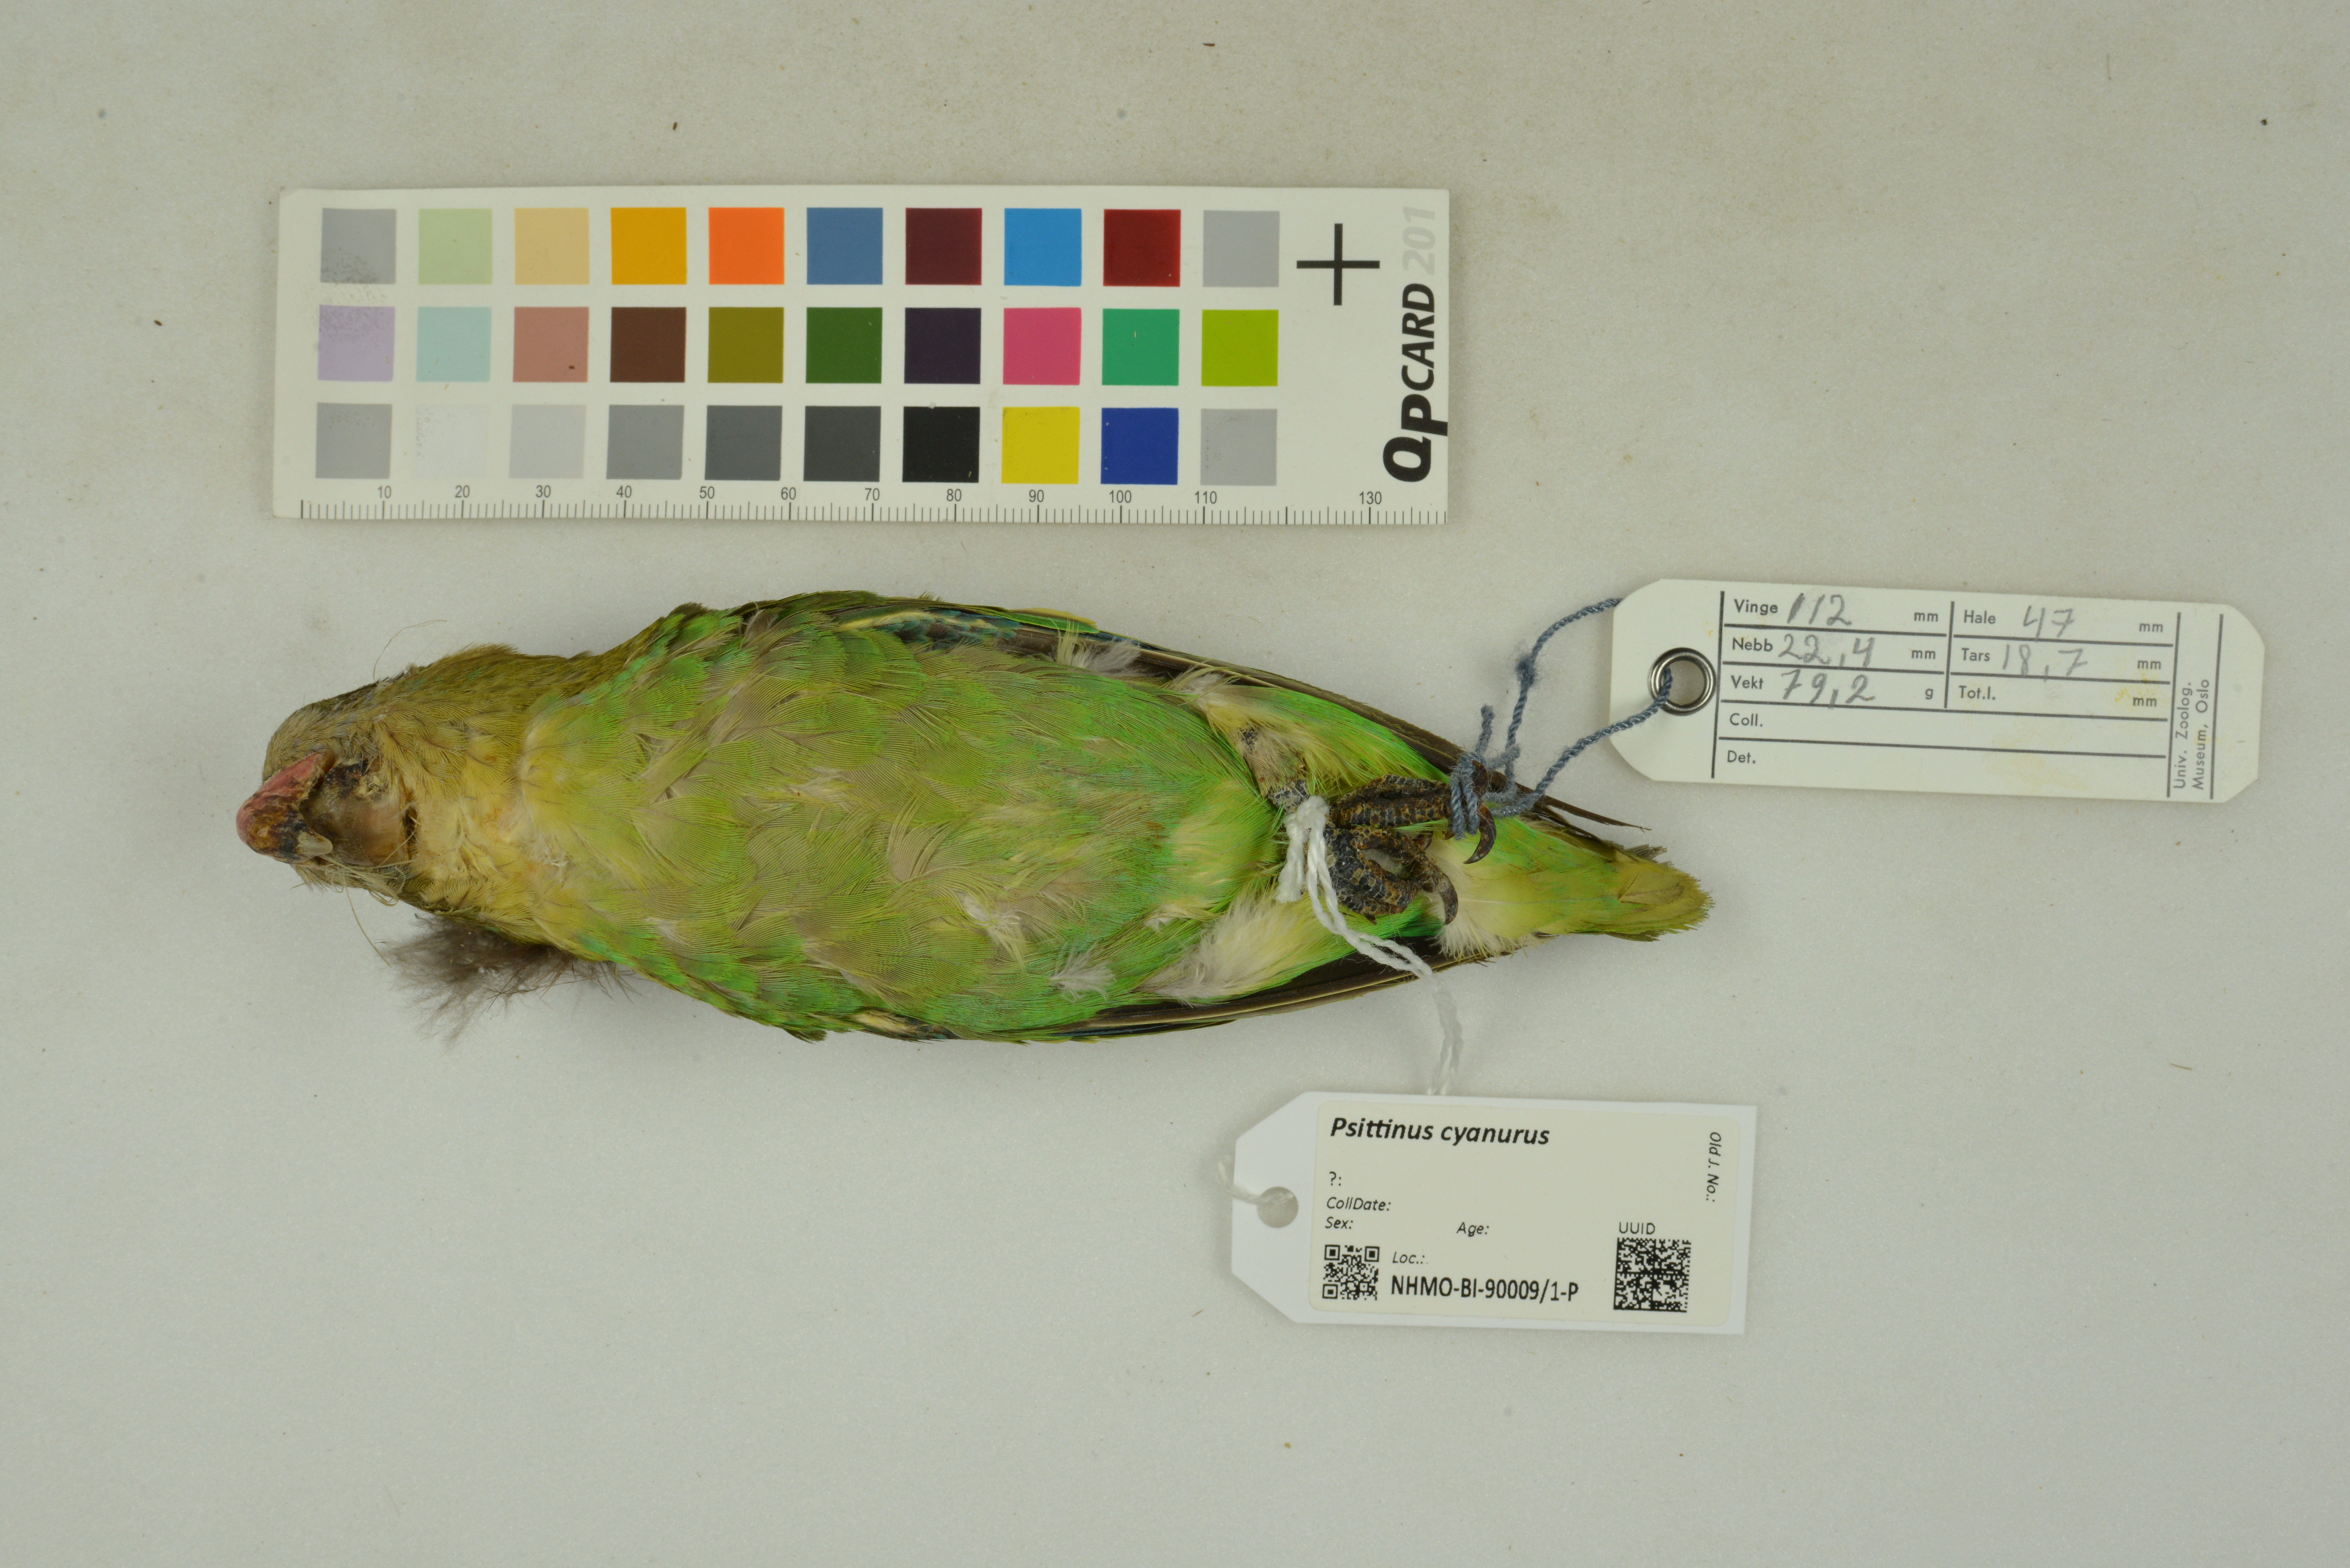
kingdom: Animalia
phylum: Chordata
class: Aves
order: Psittaciformes
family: Psittacidae
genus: Psittinus
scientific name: Psittinus cyanurus
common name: Blue-rumped parrot
